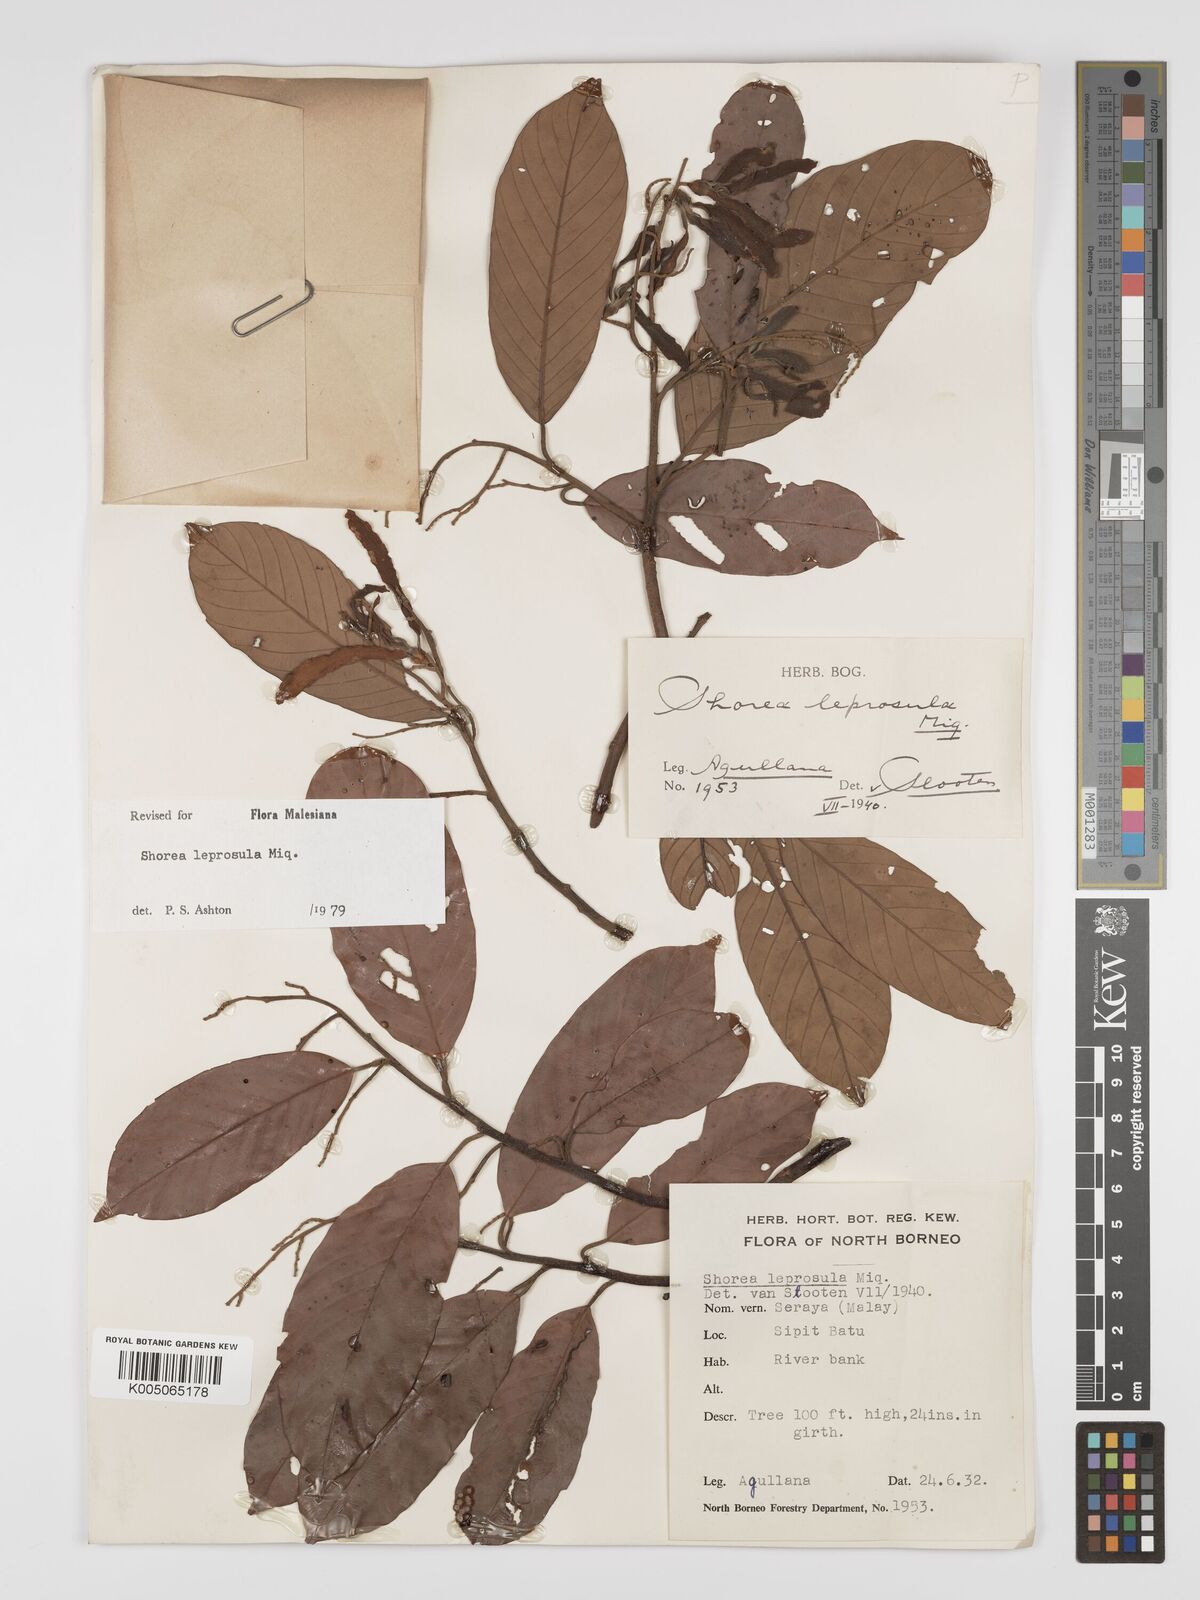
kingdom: Plantae
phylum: Tracheophyta
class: Magnoliopsida
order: Malvales
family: Dipterocarpaceae
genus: Shorea
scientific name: Shorea leprosula
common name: Light red meranti
